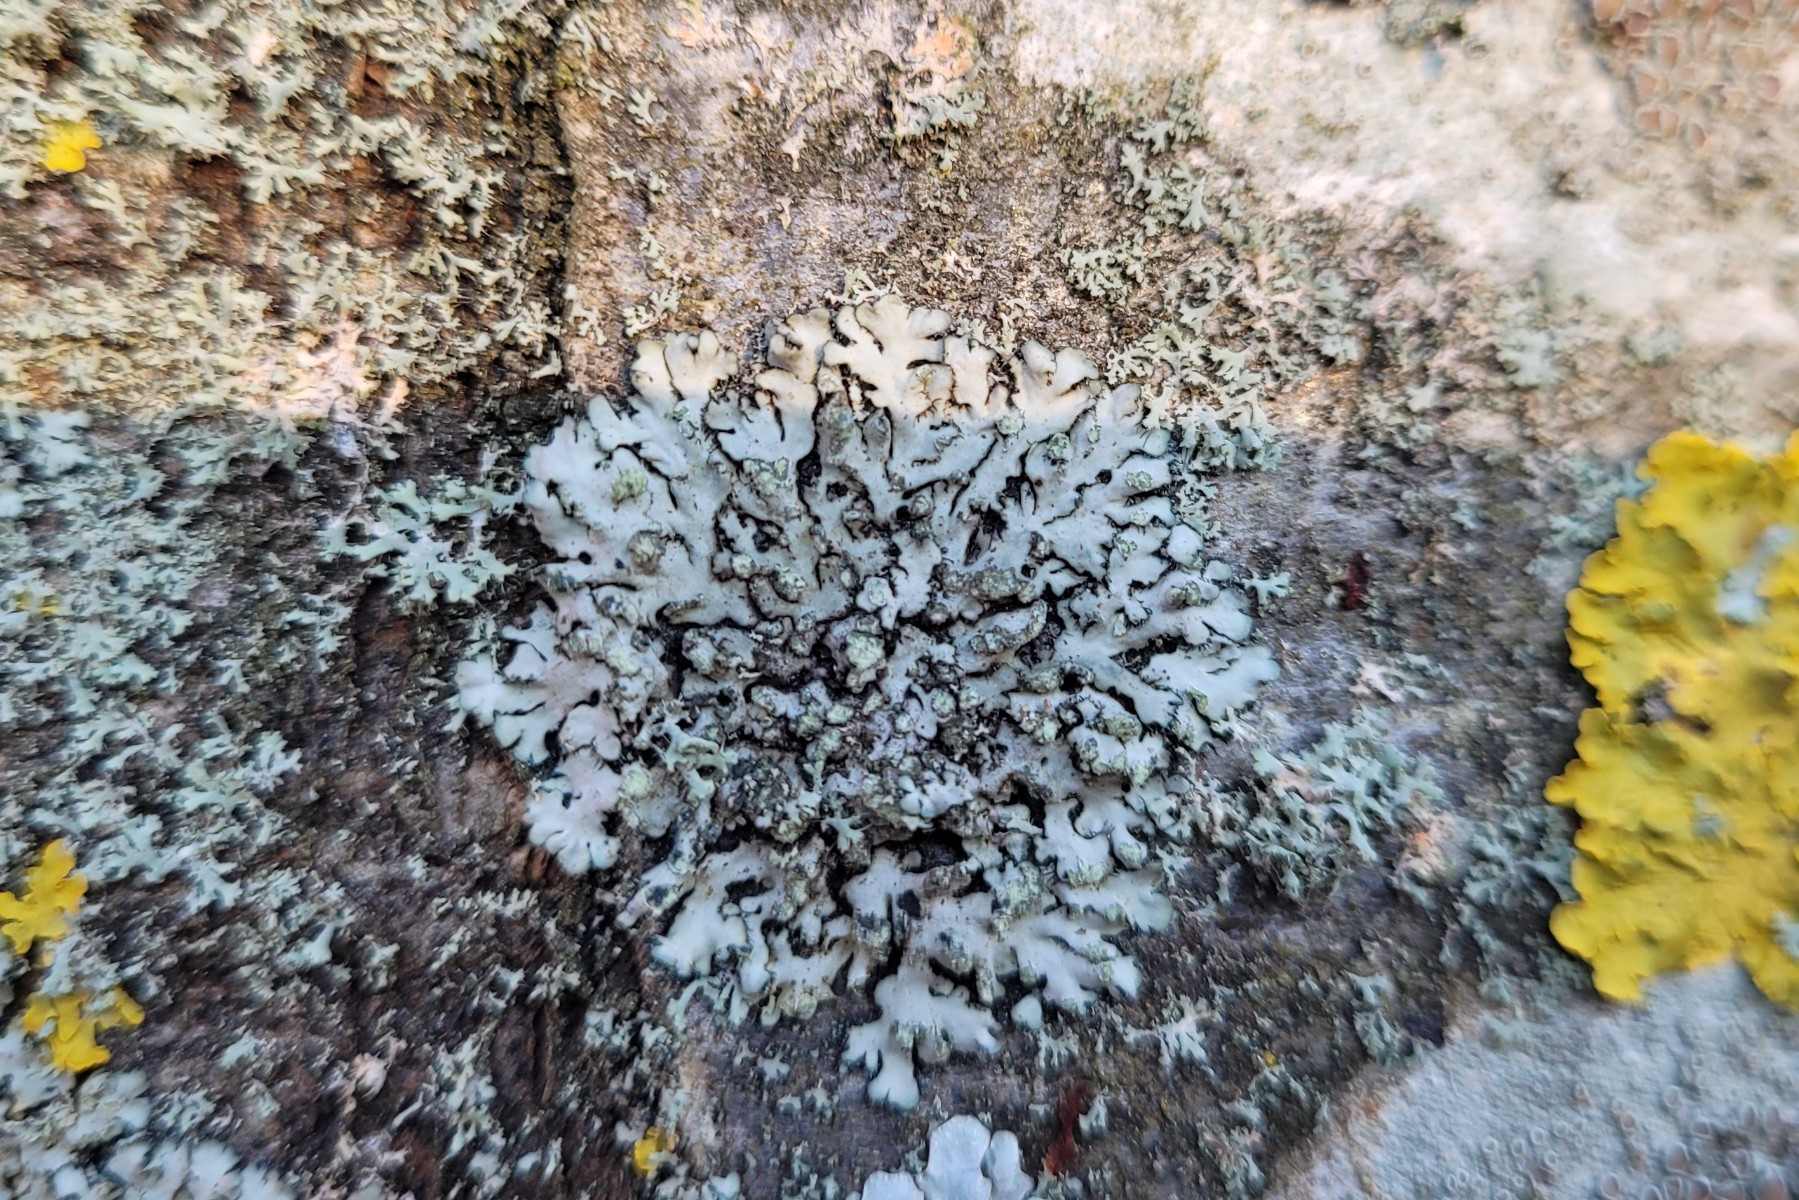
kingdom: Fungi
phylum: Ascomycota
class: Lecanoromycetes
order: Caliciales
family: Physciaceae
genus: Phaeophyscia
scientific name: Phaeophyscia orbicularis
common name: grågrøn rosetlav
